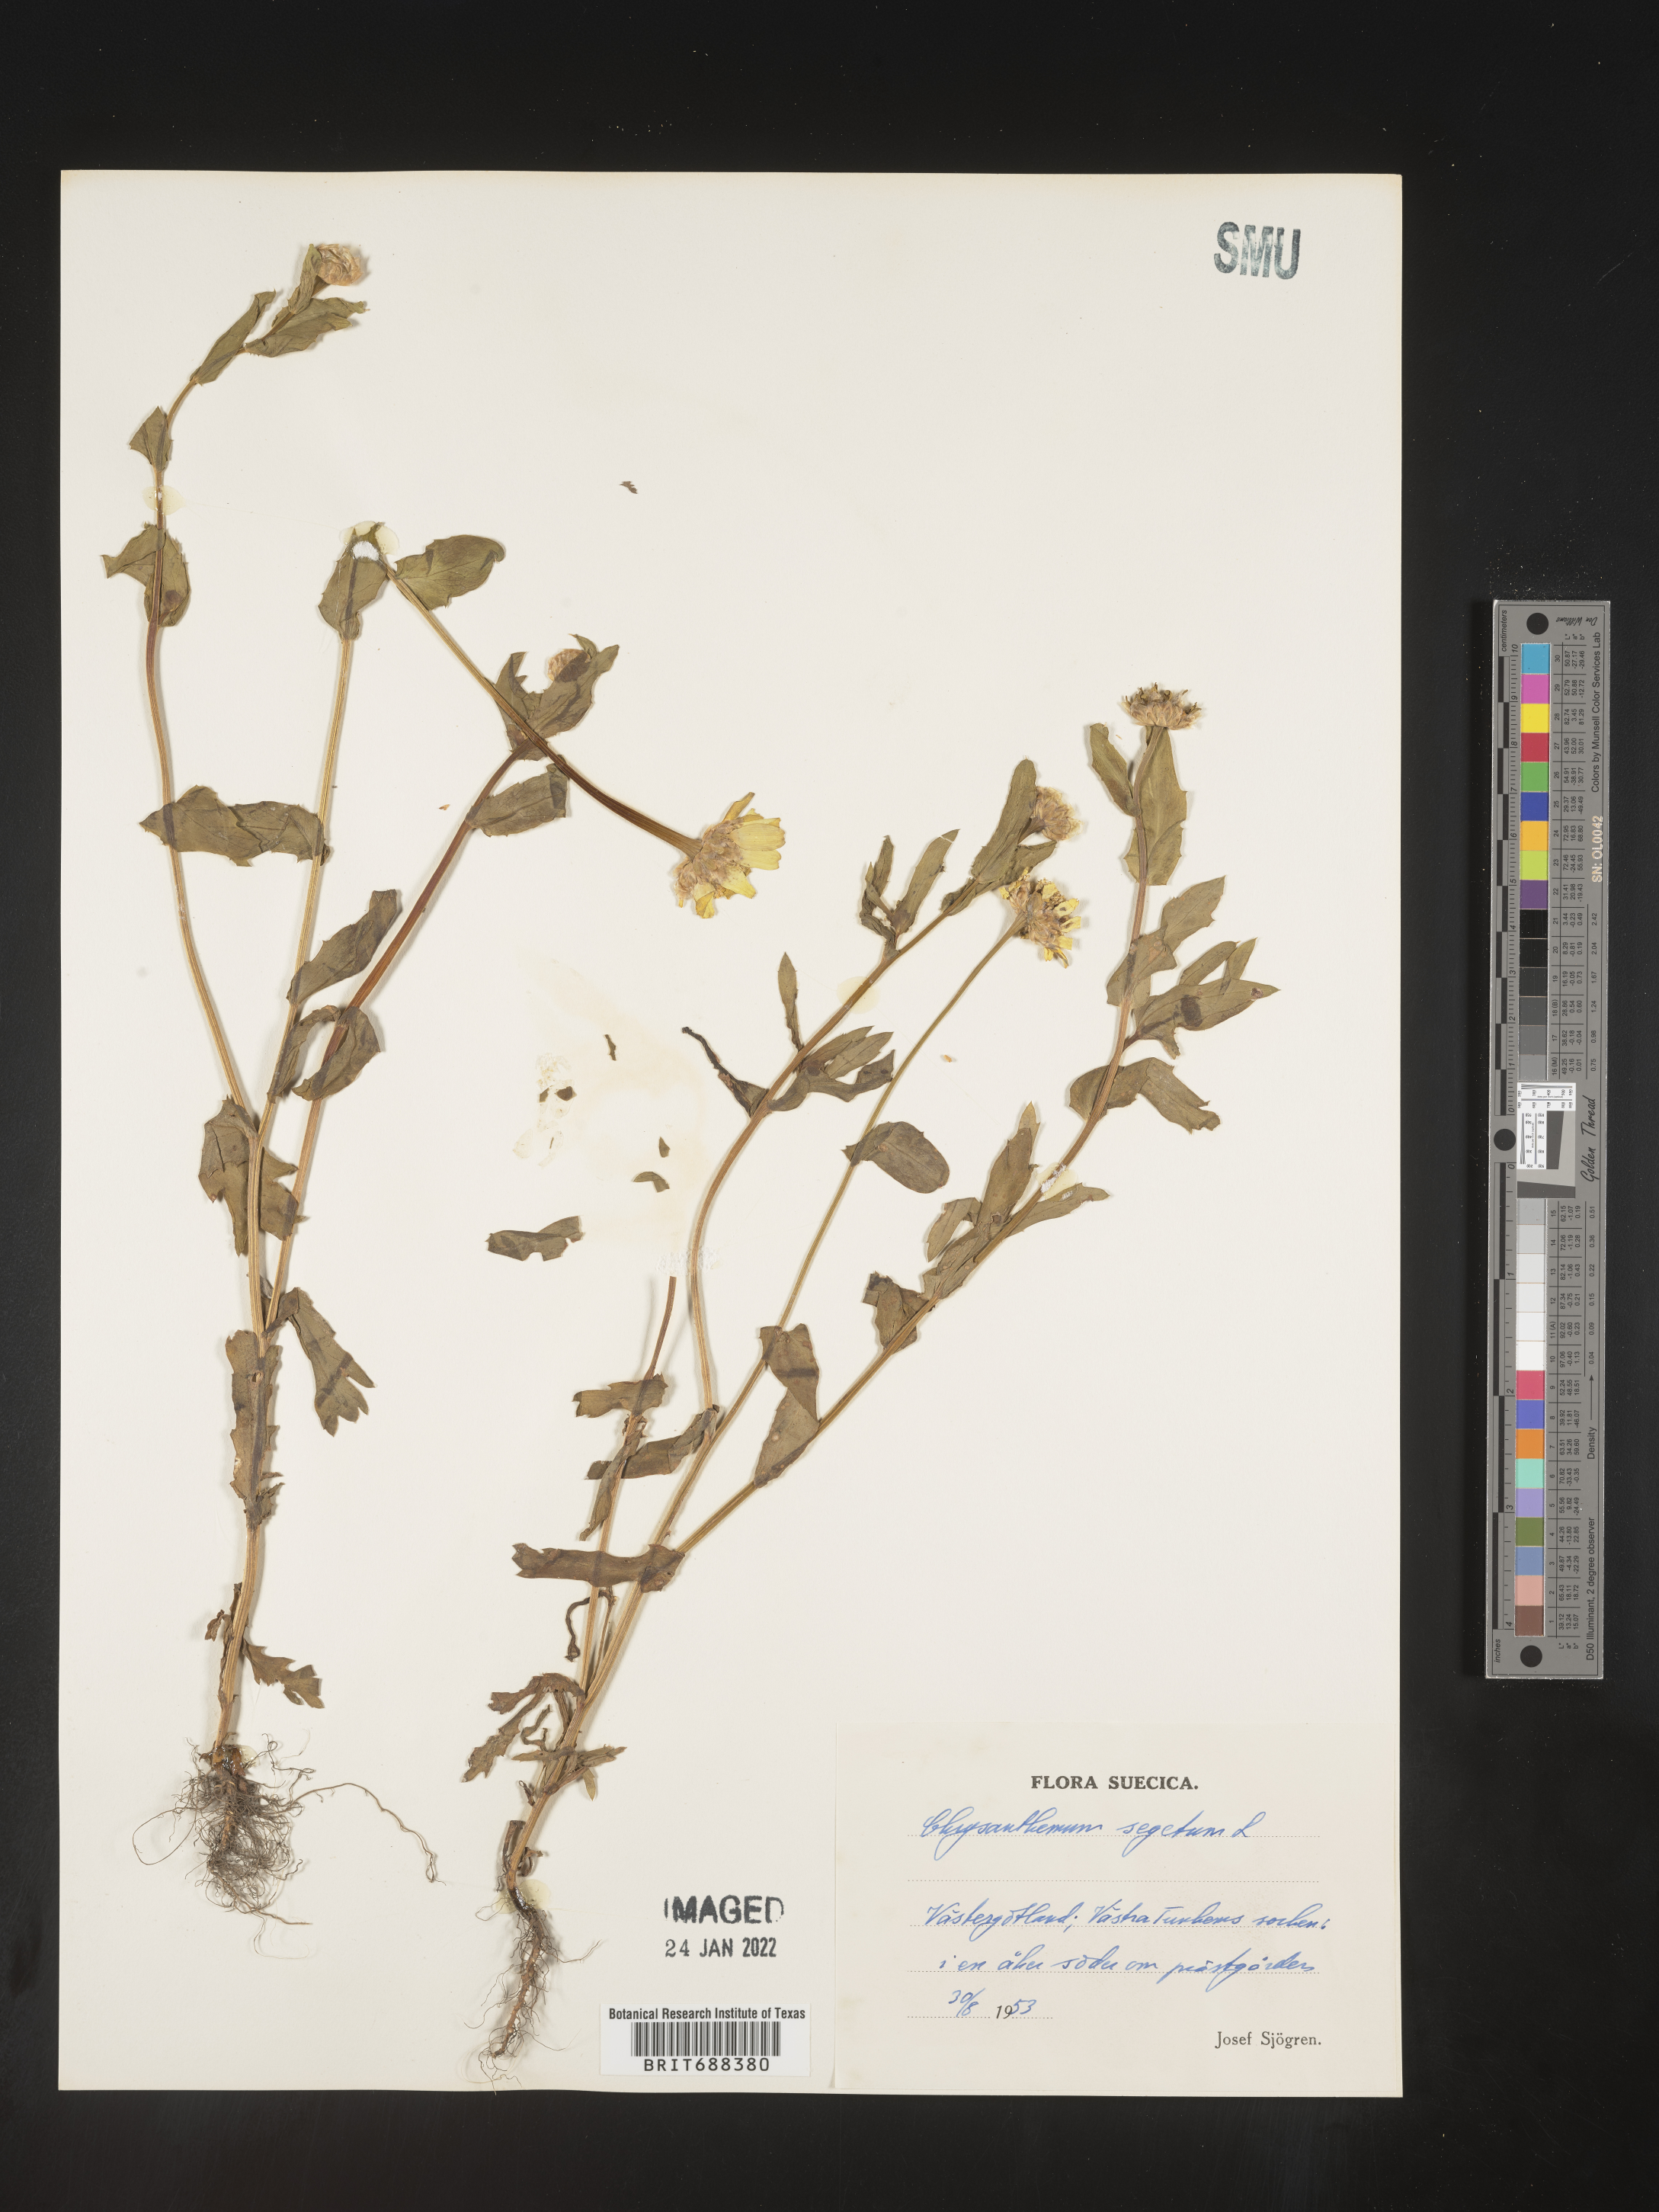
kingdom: Plantae
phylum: Tracheophyta
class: Magnoliopsida
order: Asterales
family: Asteraceae
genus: Chrysanthemum
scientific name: Chrysanthemum
